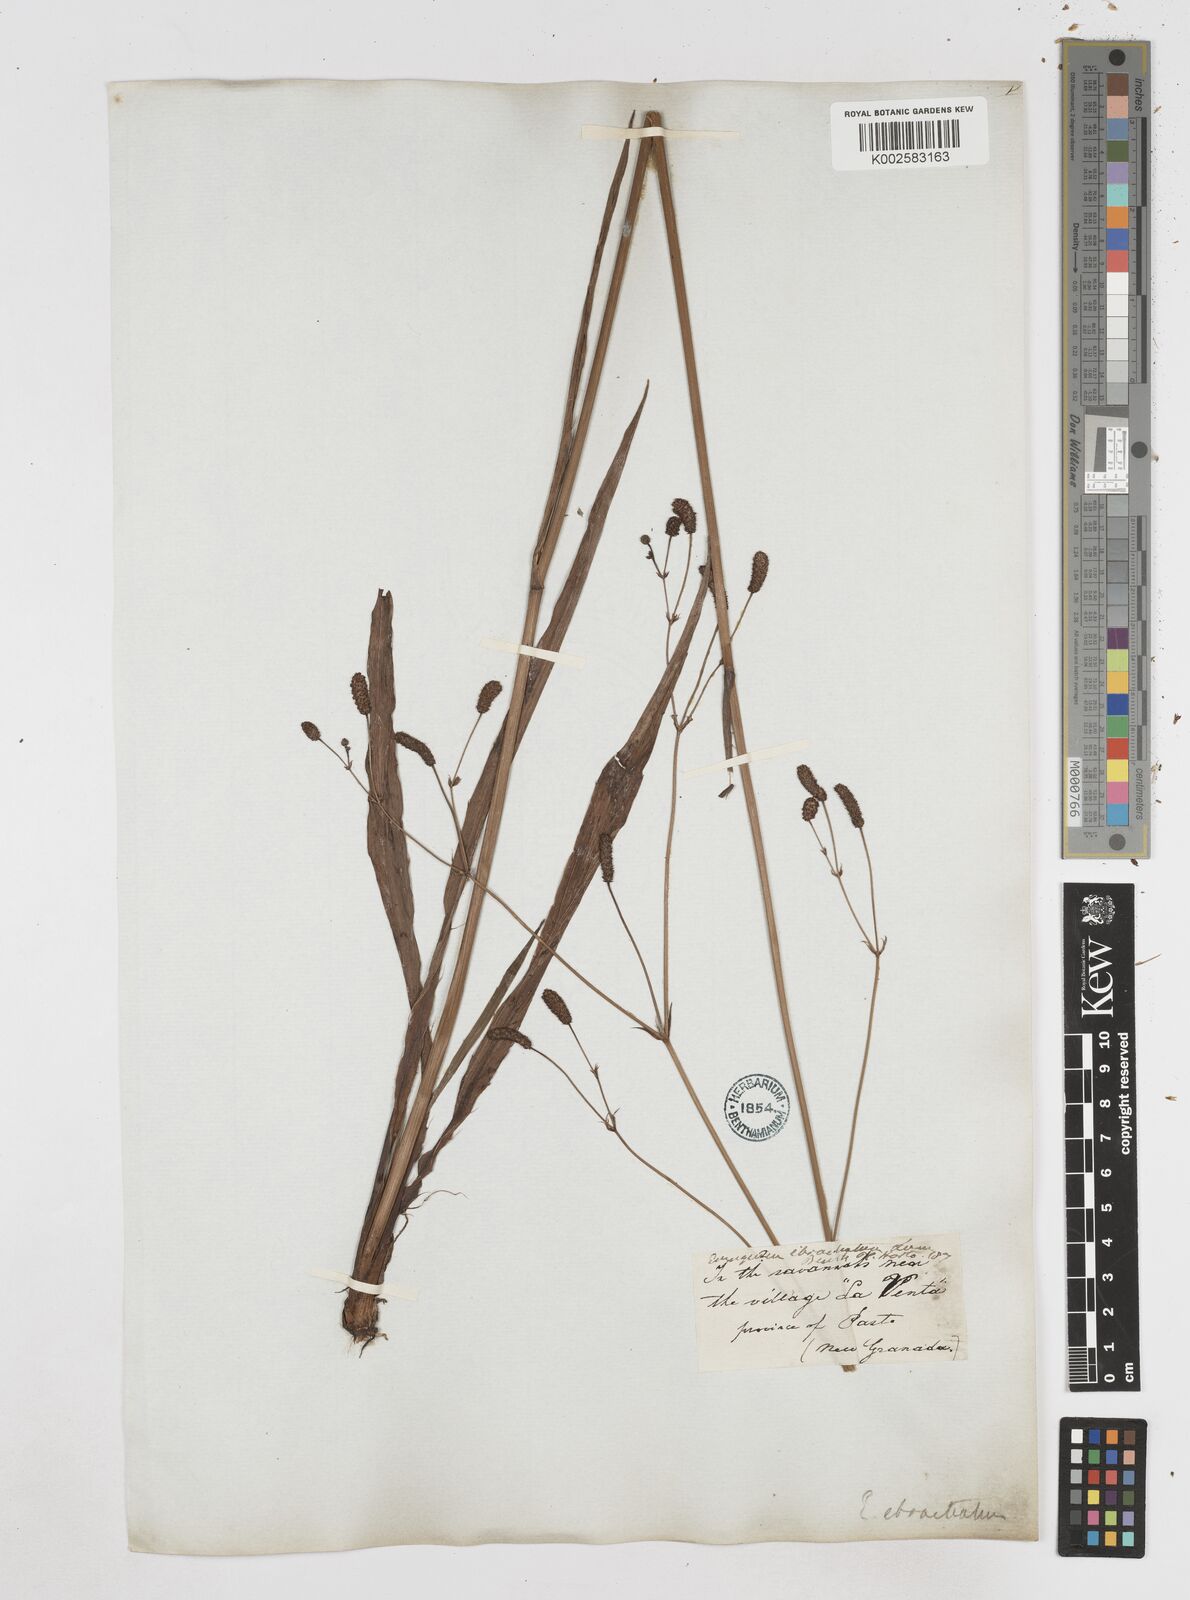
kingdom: Plantae
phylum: Tracheophyta
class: Magnoliopsida
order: Apiales
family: Apiaceae
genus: Eryngium
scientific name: Eryngium ebracteatum
